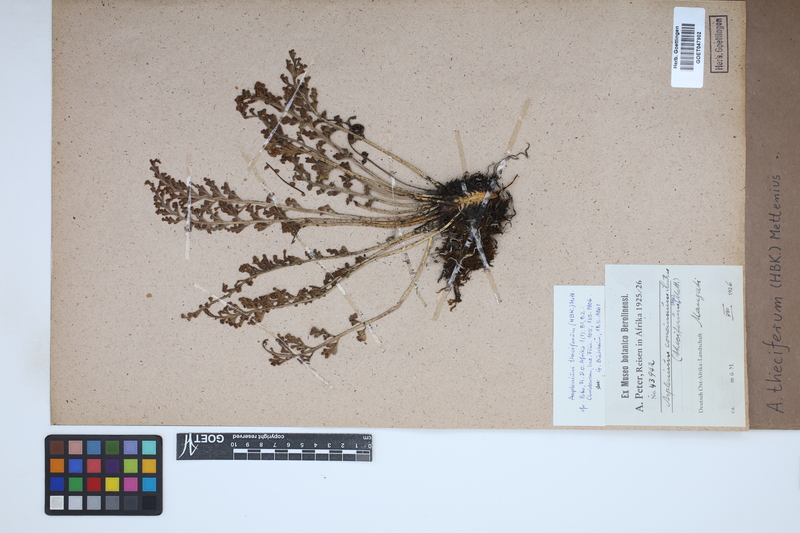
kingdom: Plantae
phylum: Tracheophyta
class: Polypodiopsida
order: Polypodiales
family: Aspleniaceae
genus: Asplenium
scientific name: Asplenium theciferum
